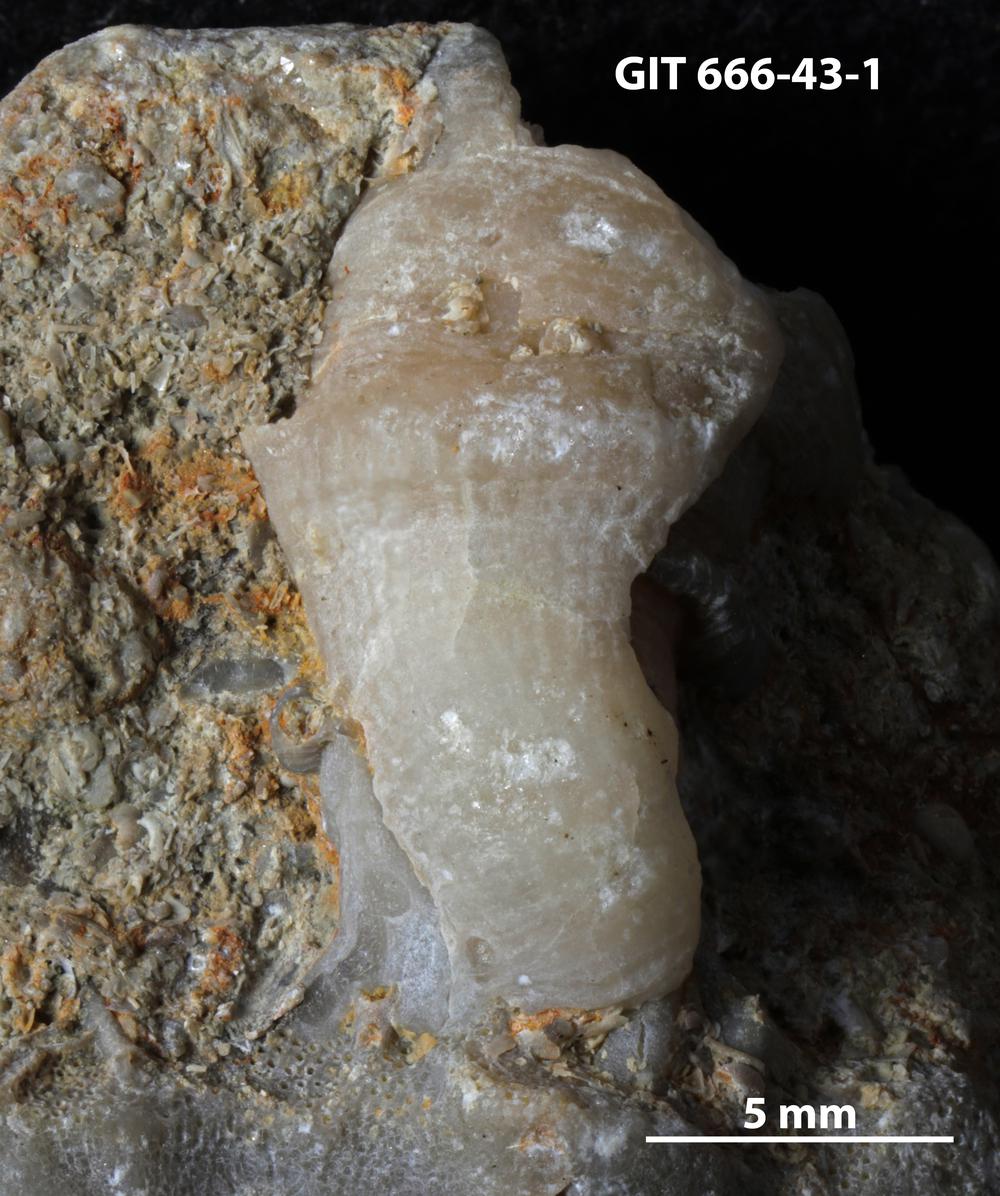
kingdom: Animalia
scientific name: Animalia
